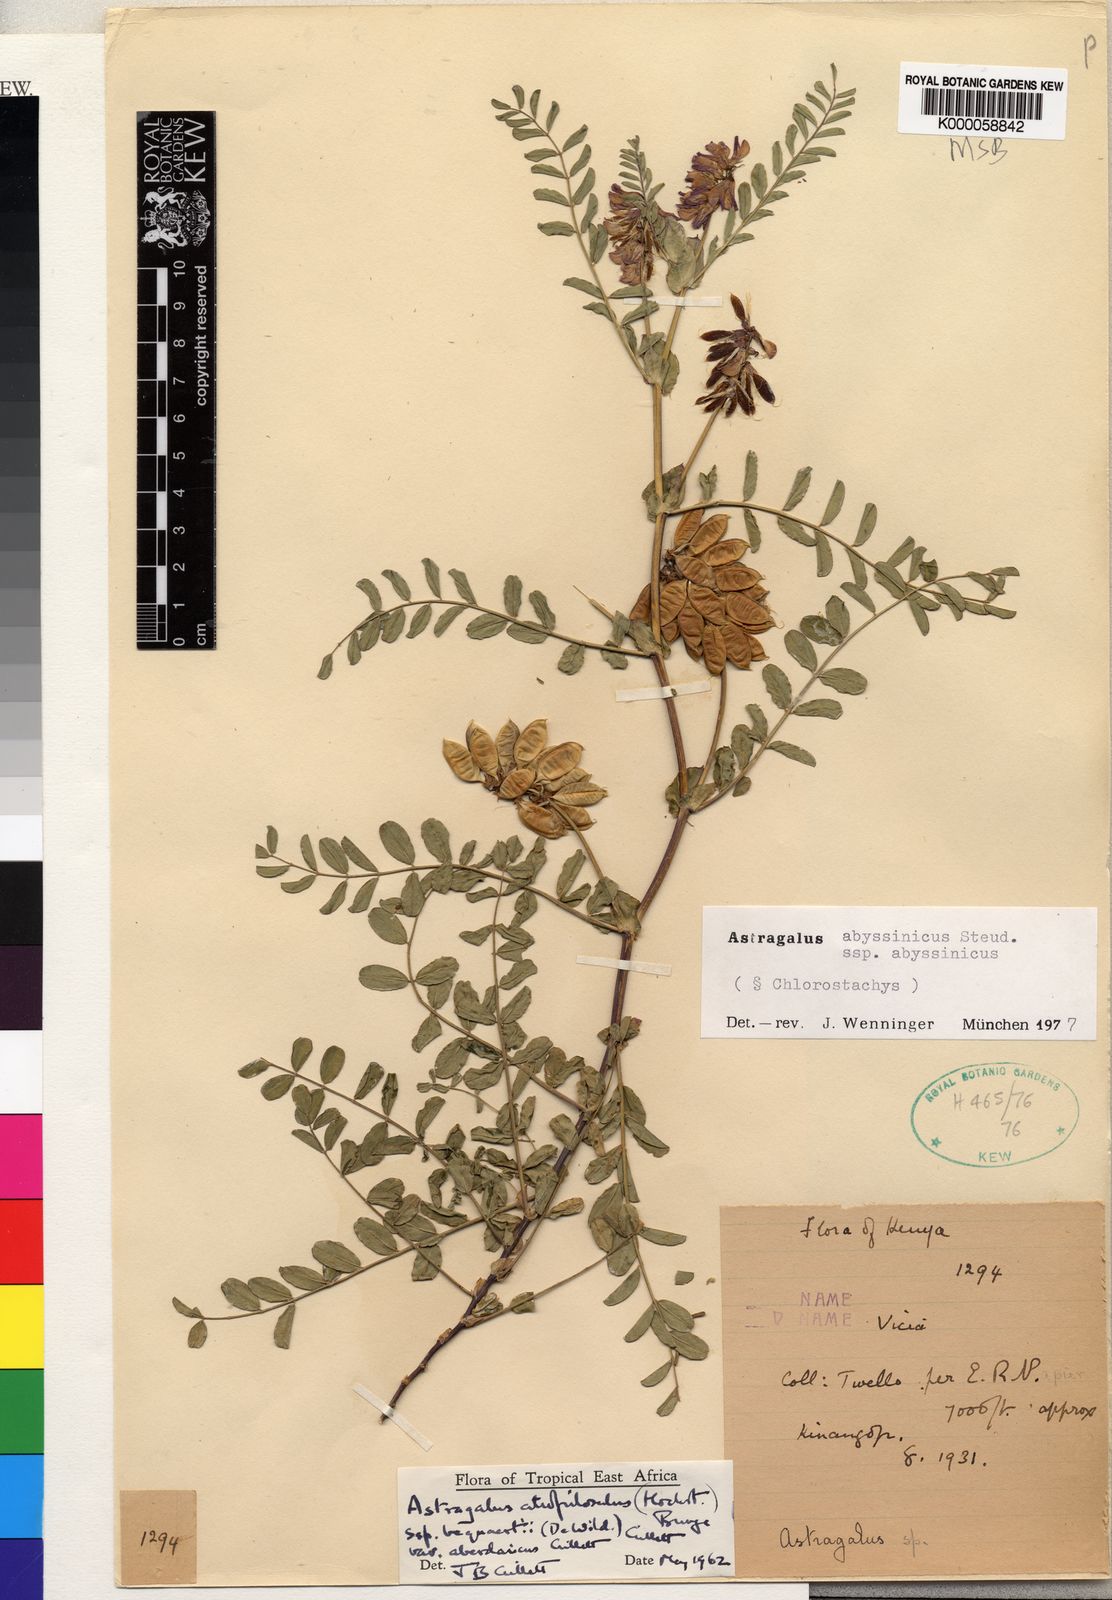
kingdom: Plantae
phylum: Tracheophyta
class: Magnoliopsida
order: Fabales
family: Fabaceae
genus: Astragalus
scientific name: Astragalus atropilosulus
